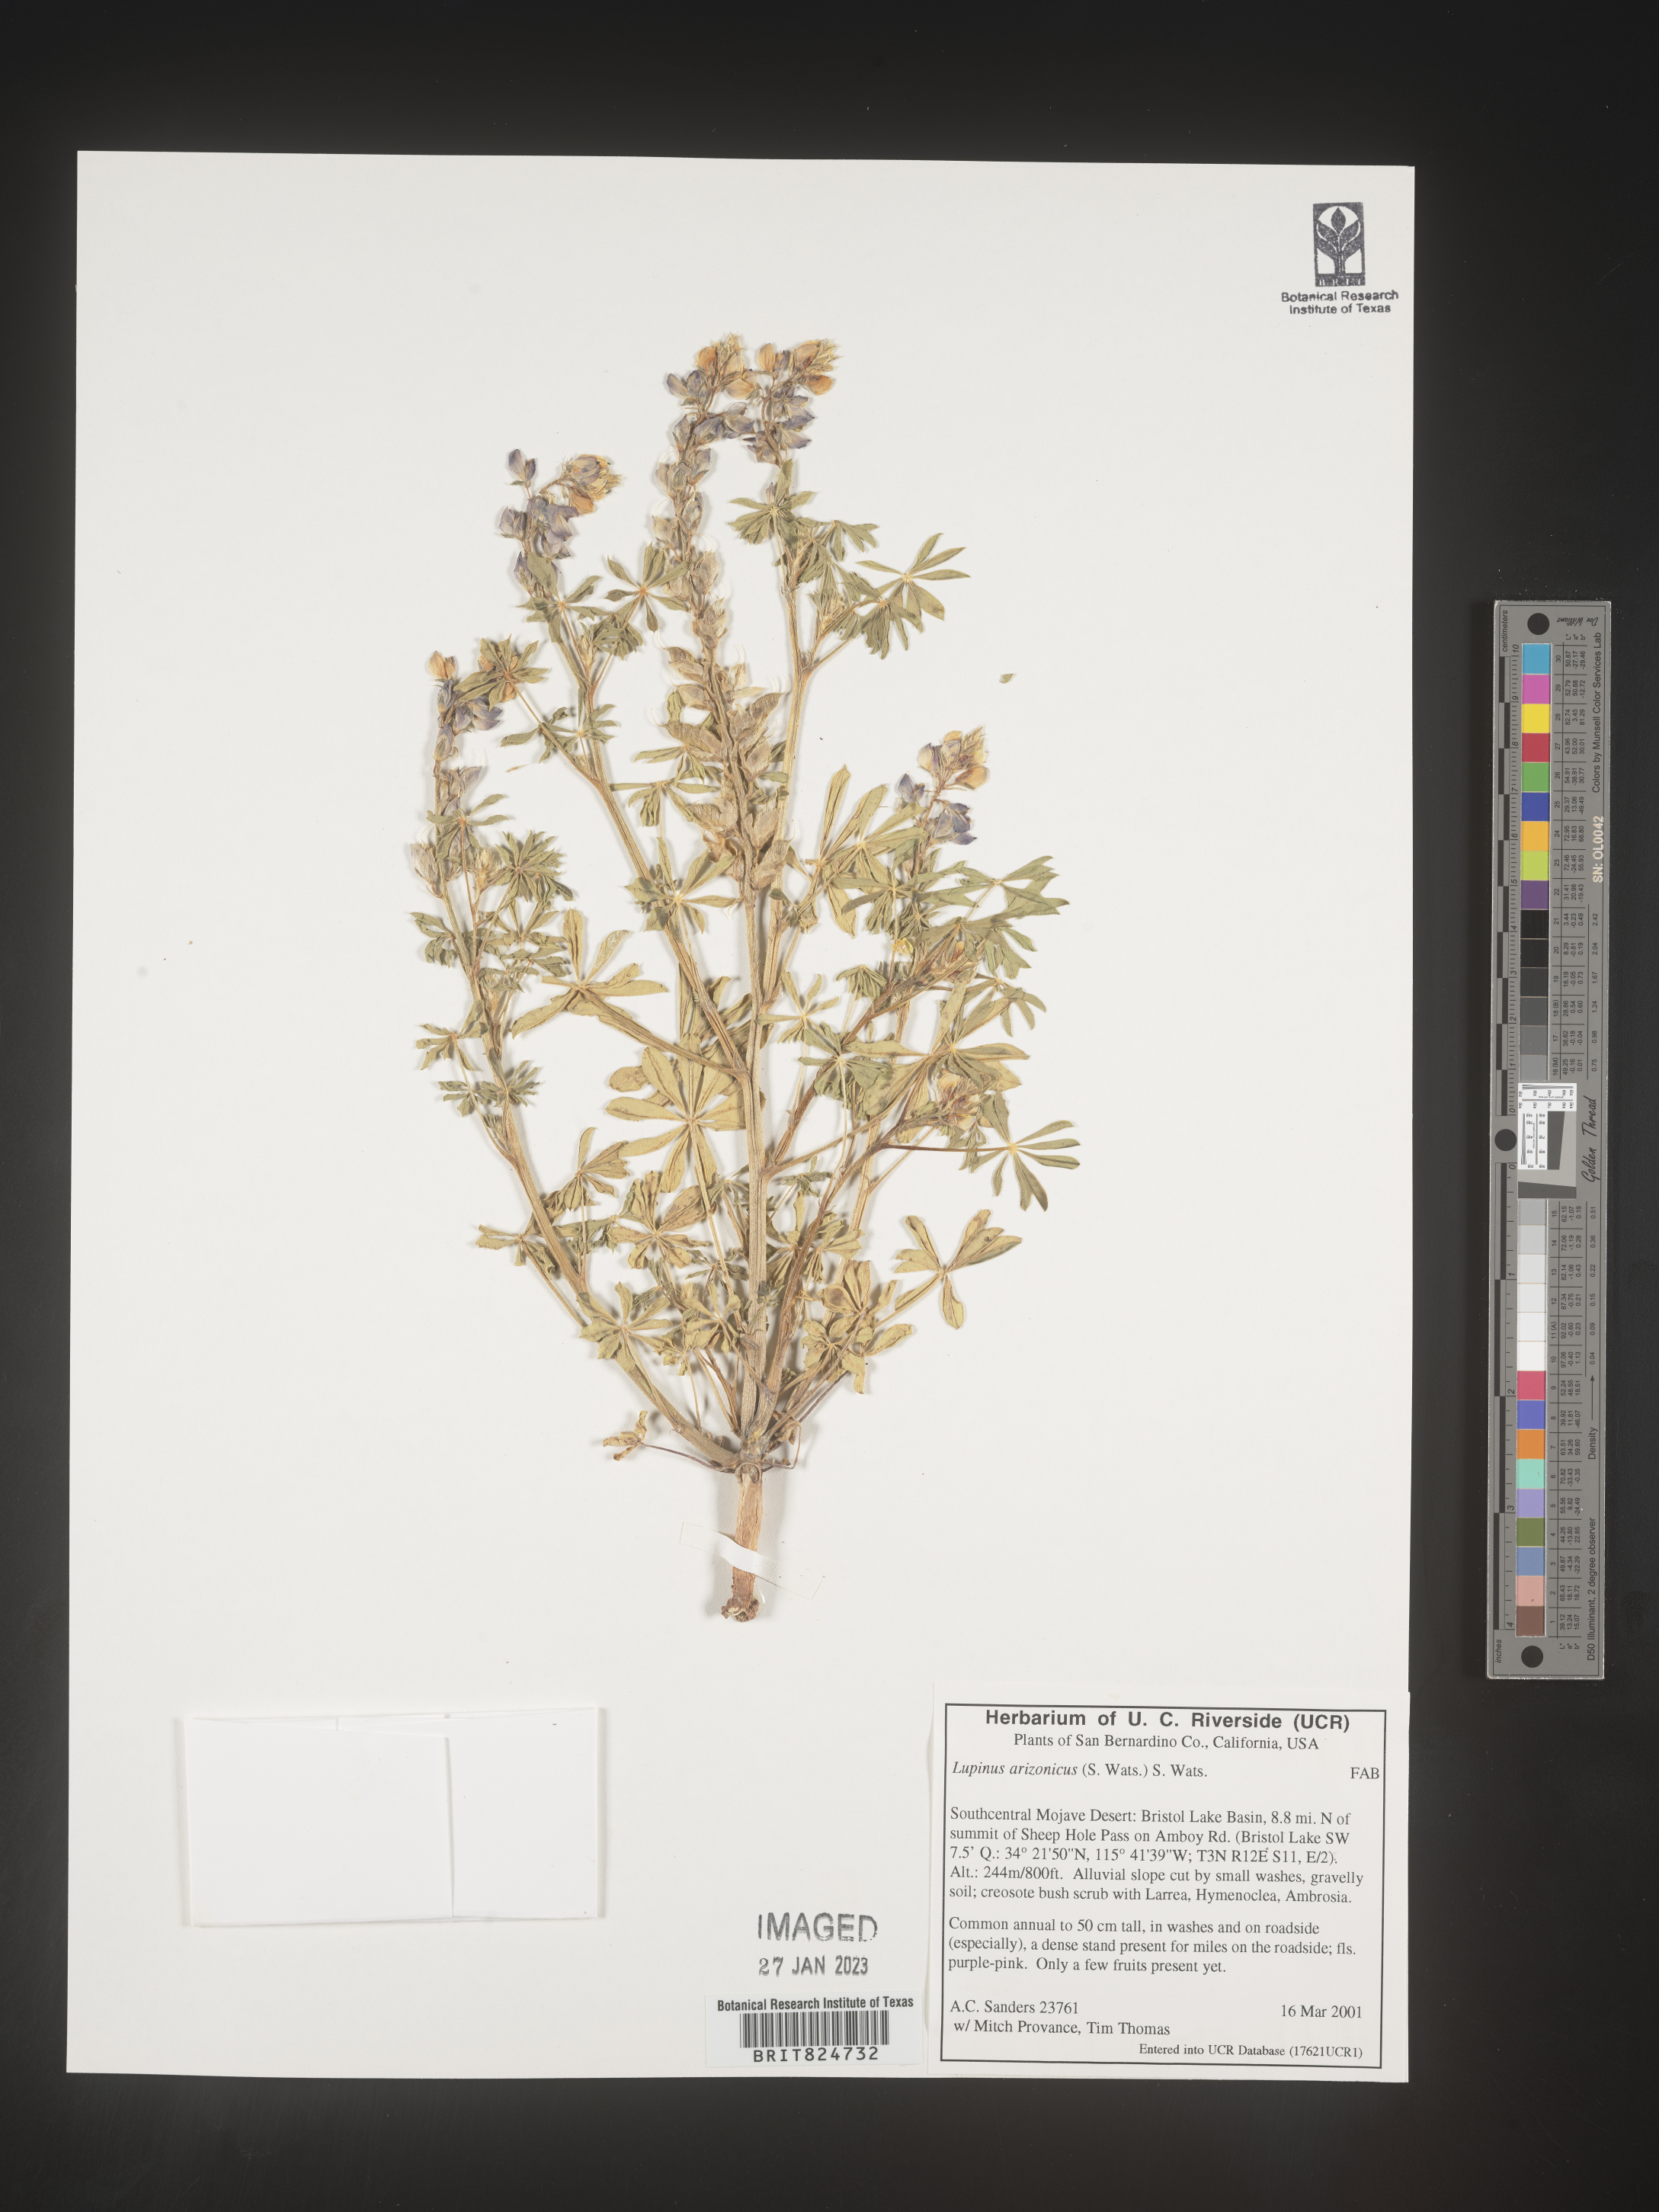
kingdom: Plantae
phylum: Tracheophyta
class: Magnoliopsida
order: Fabales
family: Fabaceae
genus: Lupinus
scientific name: Lupinus arizonicus
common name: Arizona lupine
